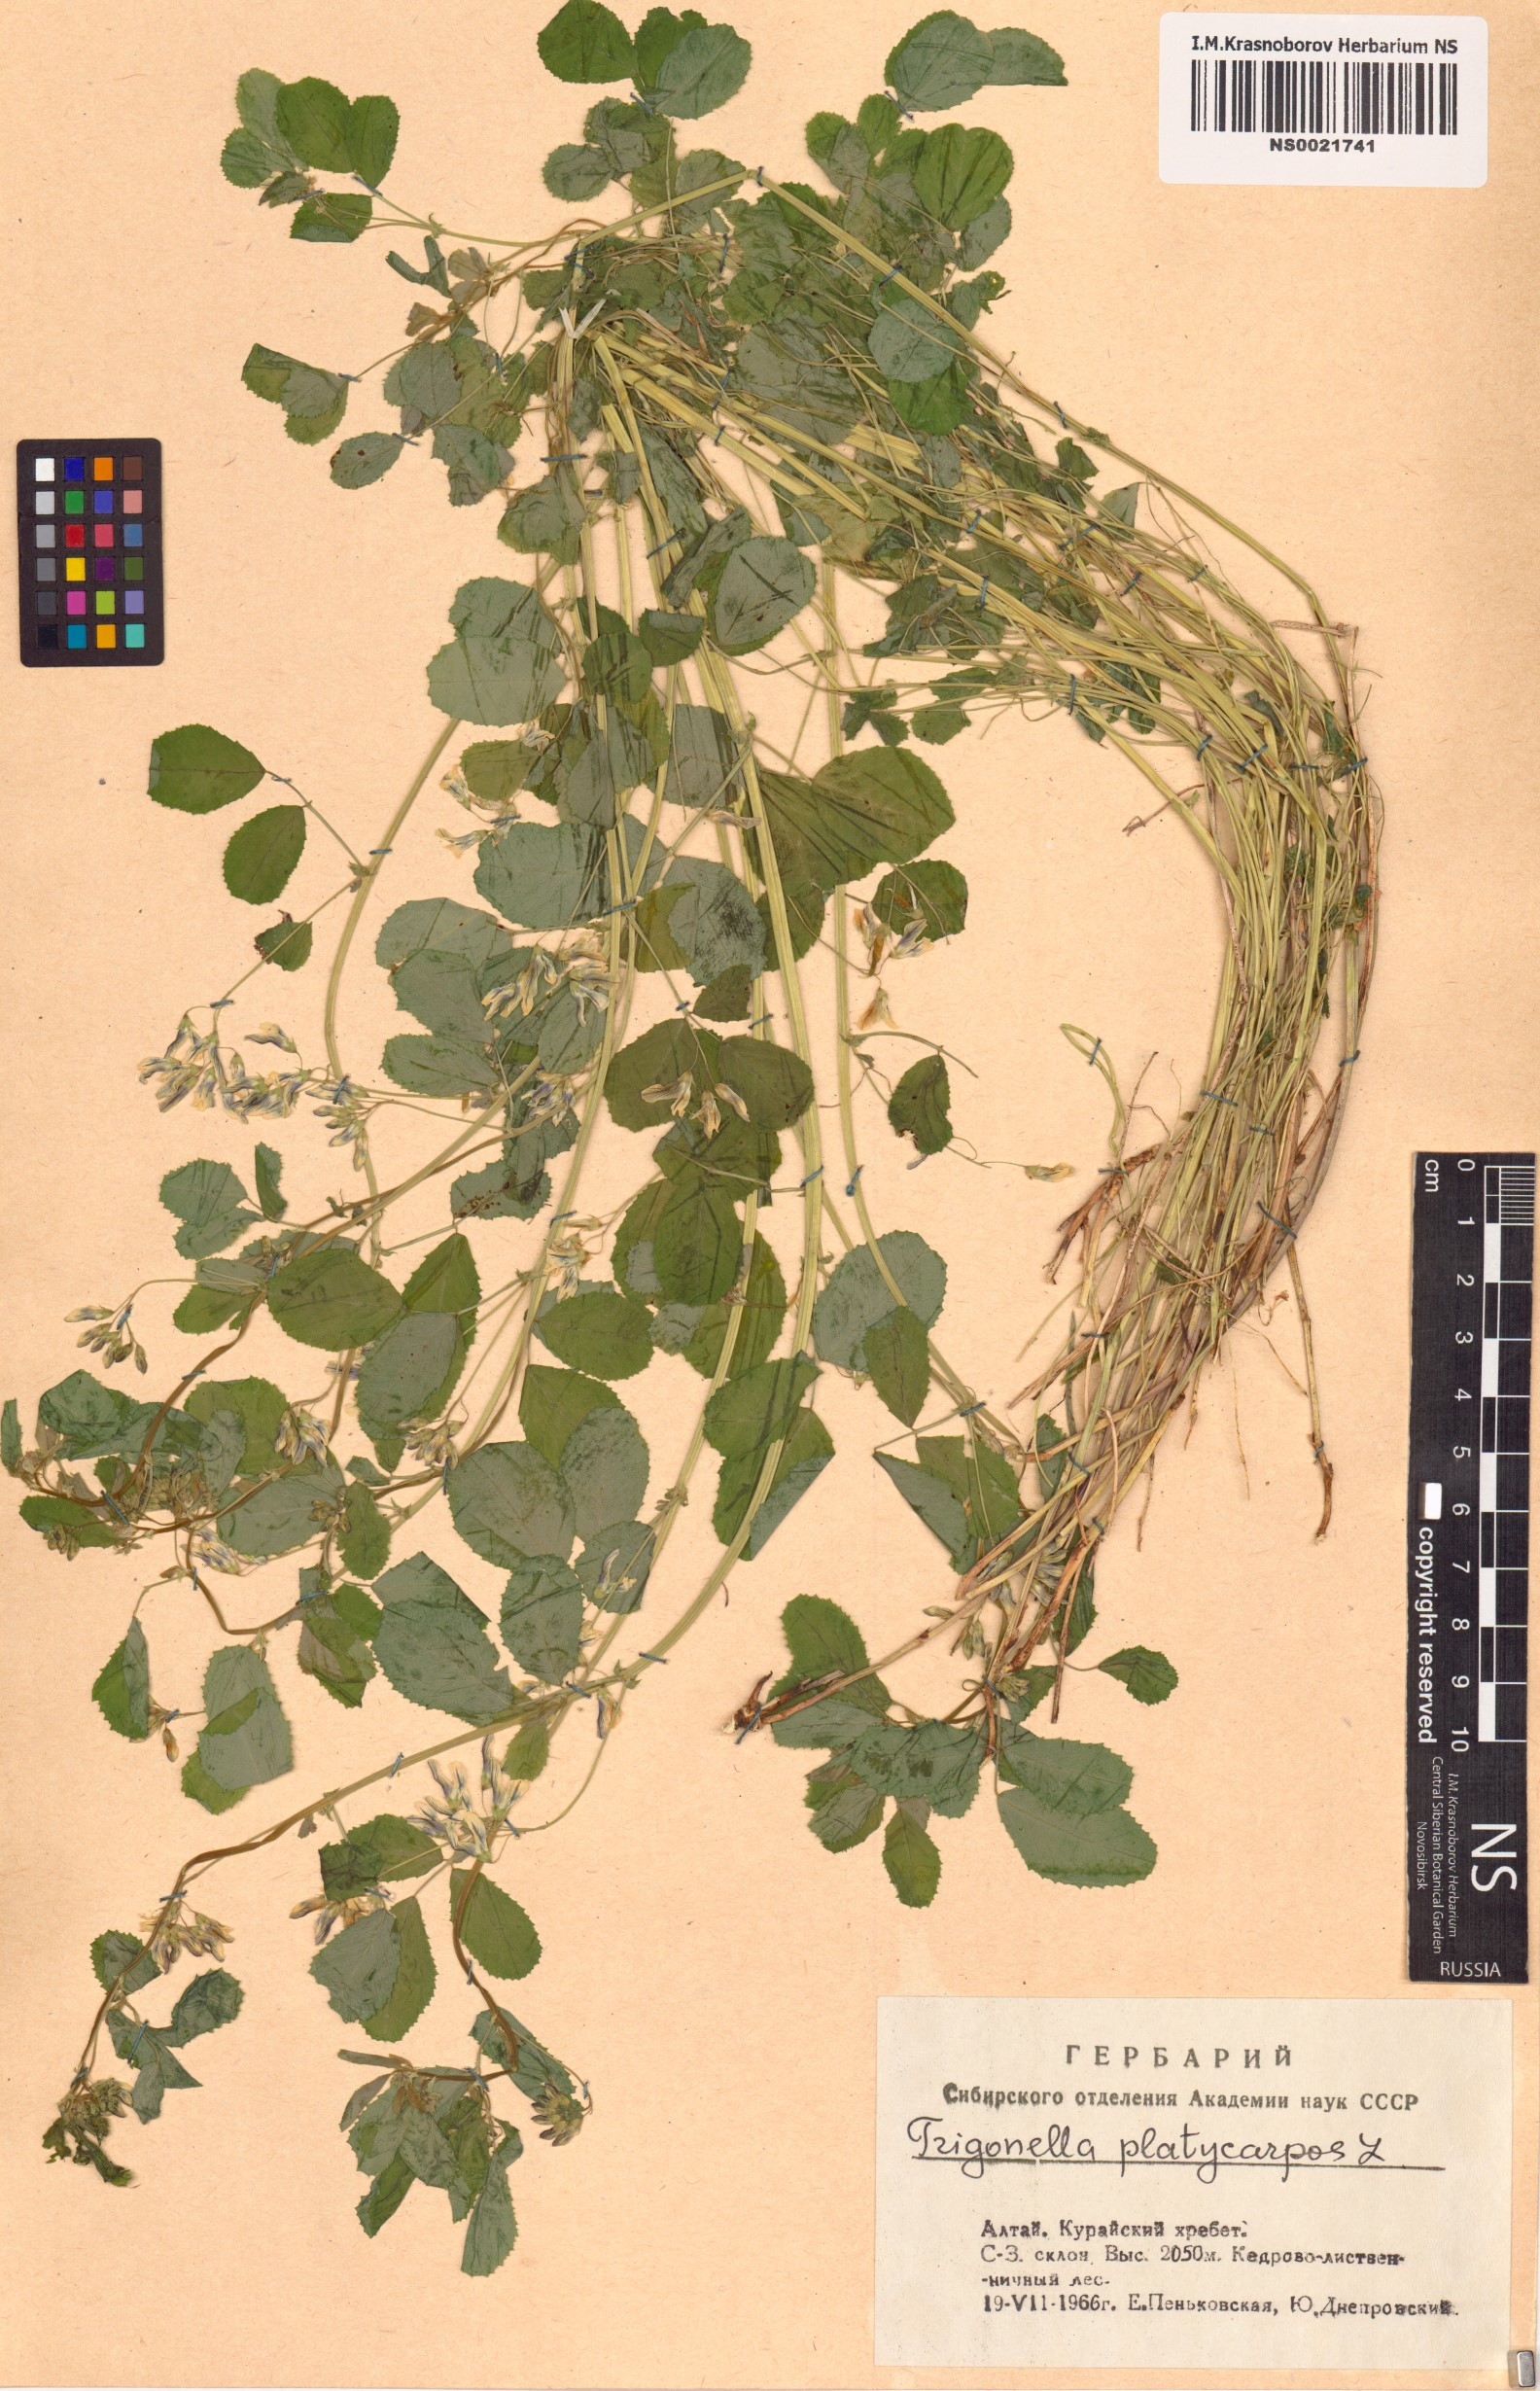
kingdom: Plantae
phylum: Tracheophyta
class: Magnoliopsida
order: Fabales
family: Fabaceae
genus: Medicago
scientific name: Medicago platycarpos
